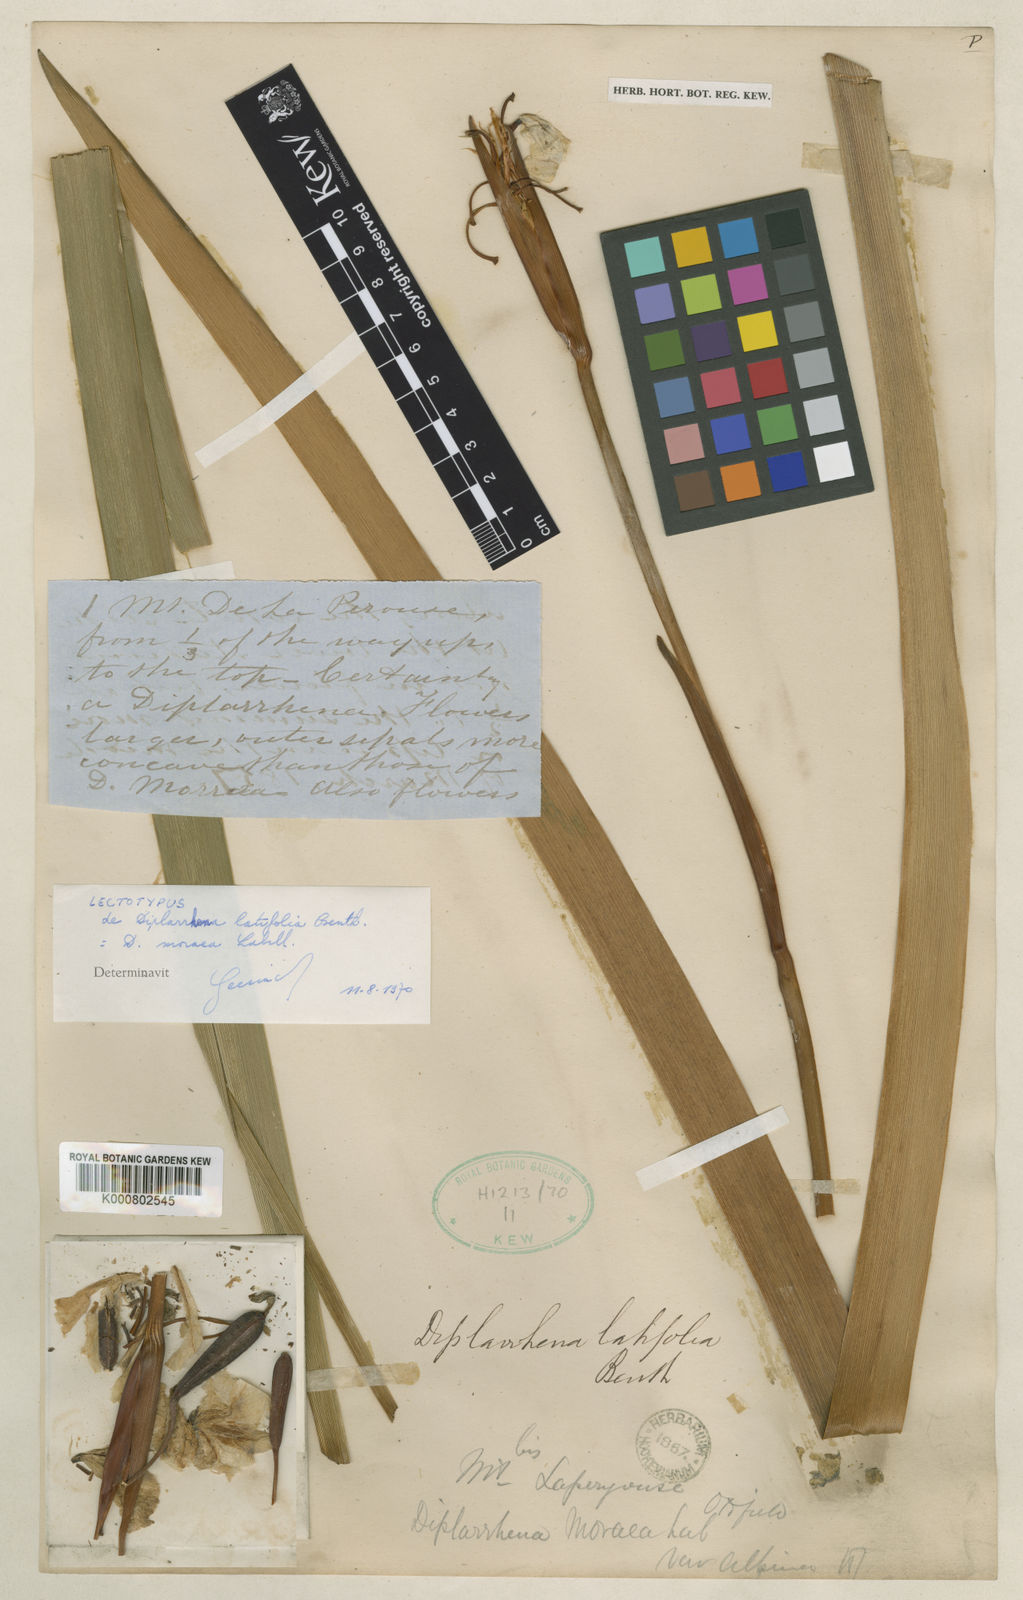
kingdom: Plantae
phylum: Tracheophyta
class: Liliopsida
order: Asparagales
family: Iridaceae
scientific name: Iridaceae
